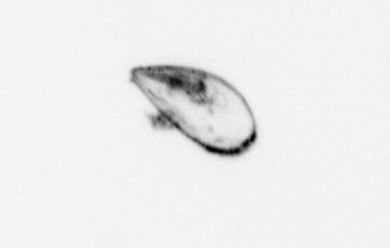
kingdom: Animalia
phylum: Mollusca
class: Bivalvia
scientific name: Bivalvia
